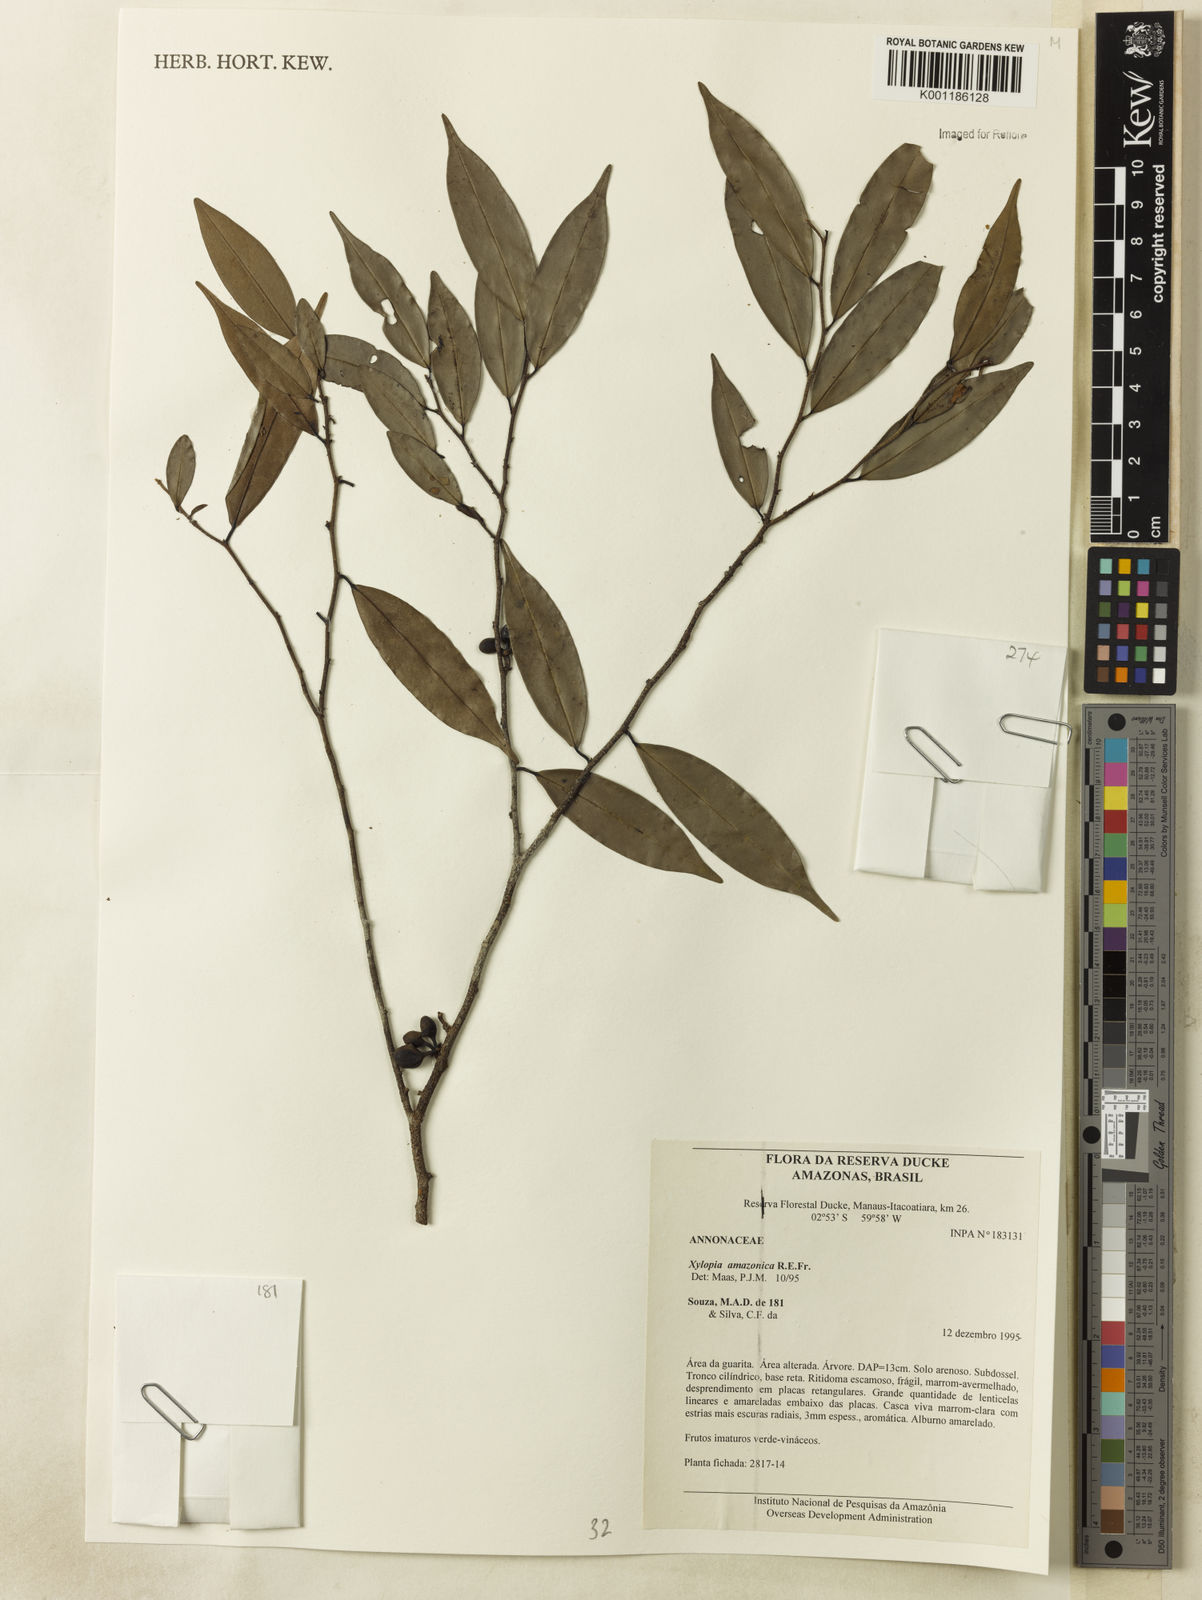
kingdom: Plantae
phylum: Tracheophyta
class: Magnoliopsida
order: Magnoliales
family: Annonaceae
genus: Xylopia
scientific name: Xylopia amazonica
